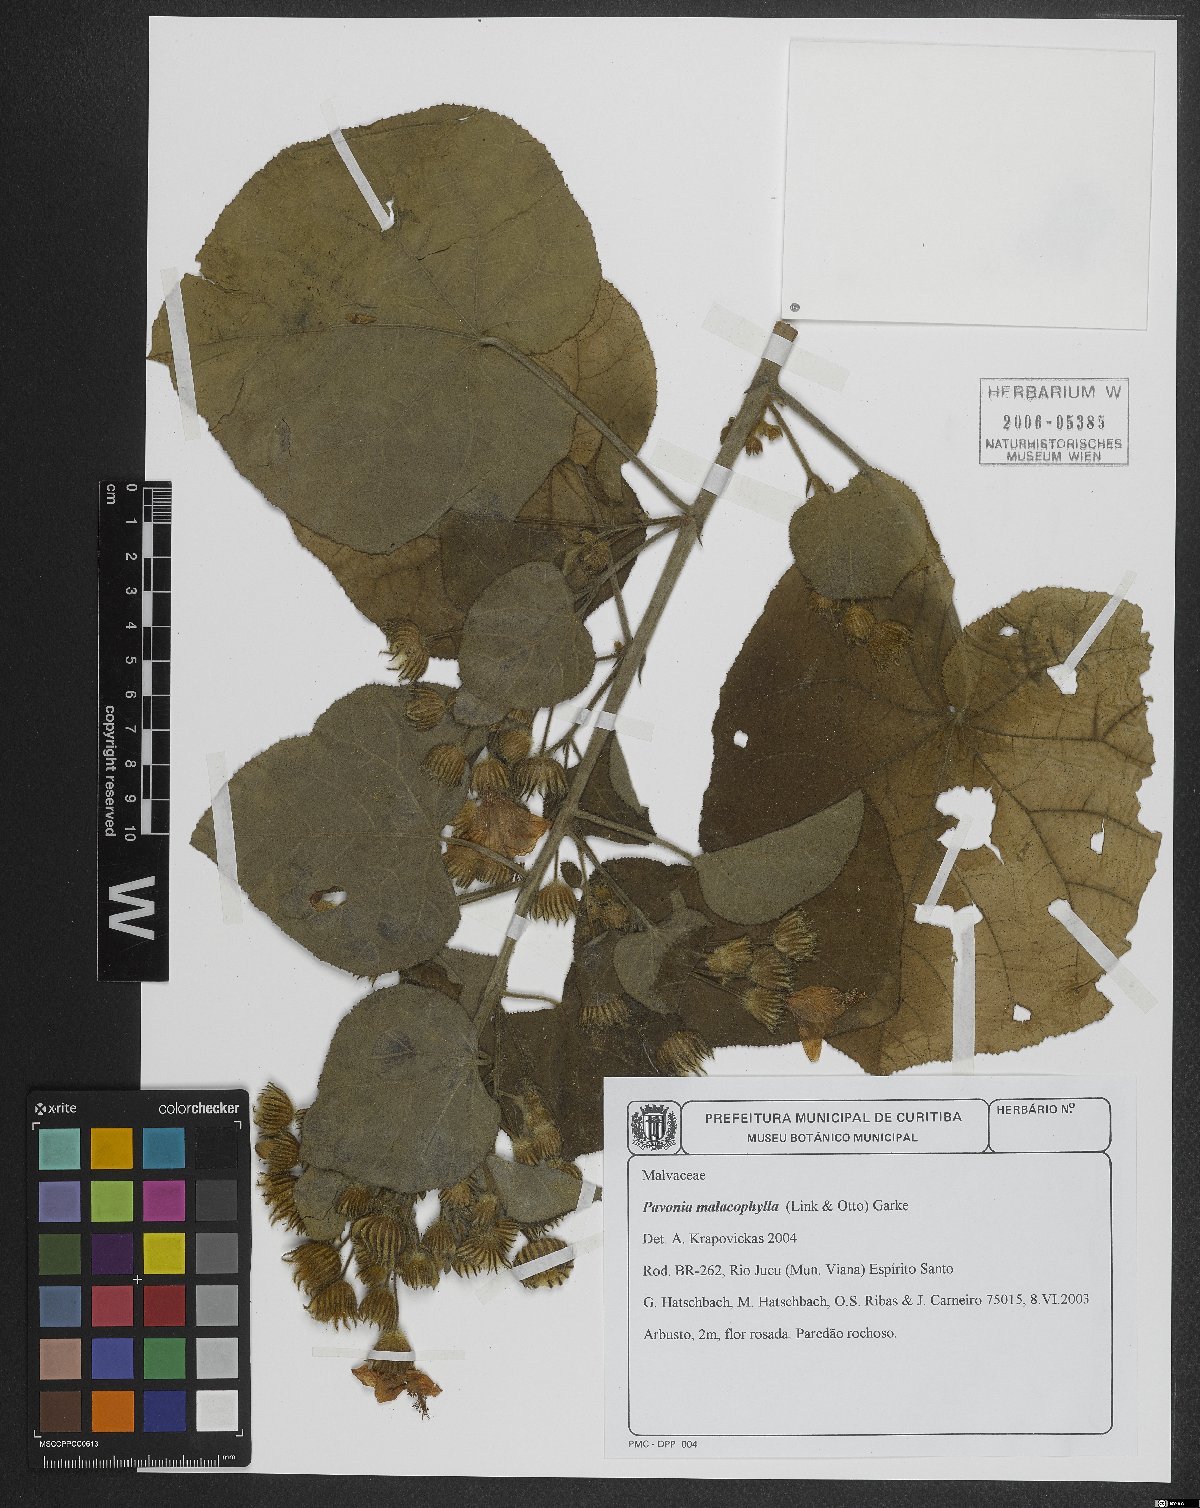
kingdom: Plantae
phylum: Tracheophyta
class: Magnoliopsida
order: Malvales
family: Malvaceae
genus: Pavonia
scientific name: Pavonia malacophylla
